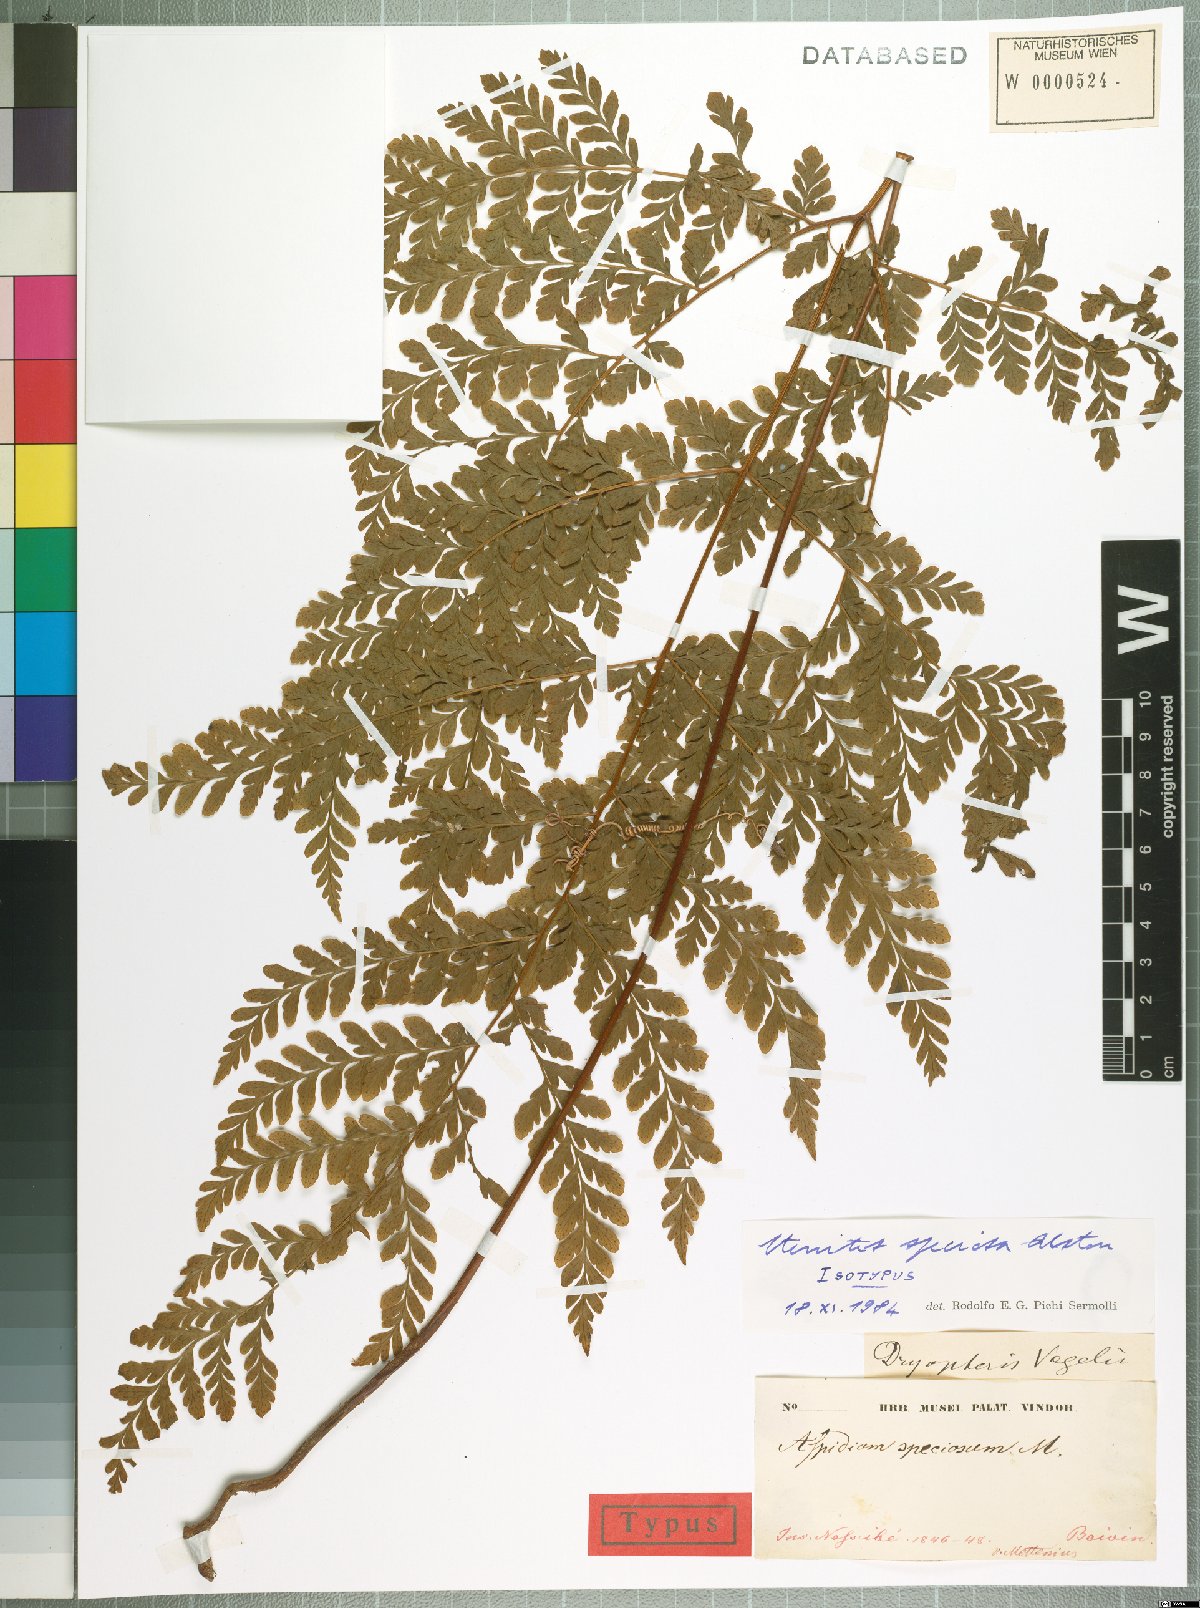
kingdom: Plantae
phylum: Tracheophyta
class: Polypodiopsida
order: Polypodiales
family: Tectariaceae
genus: Triplophyllum
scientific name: Triplophyllum speciosum
